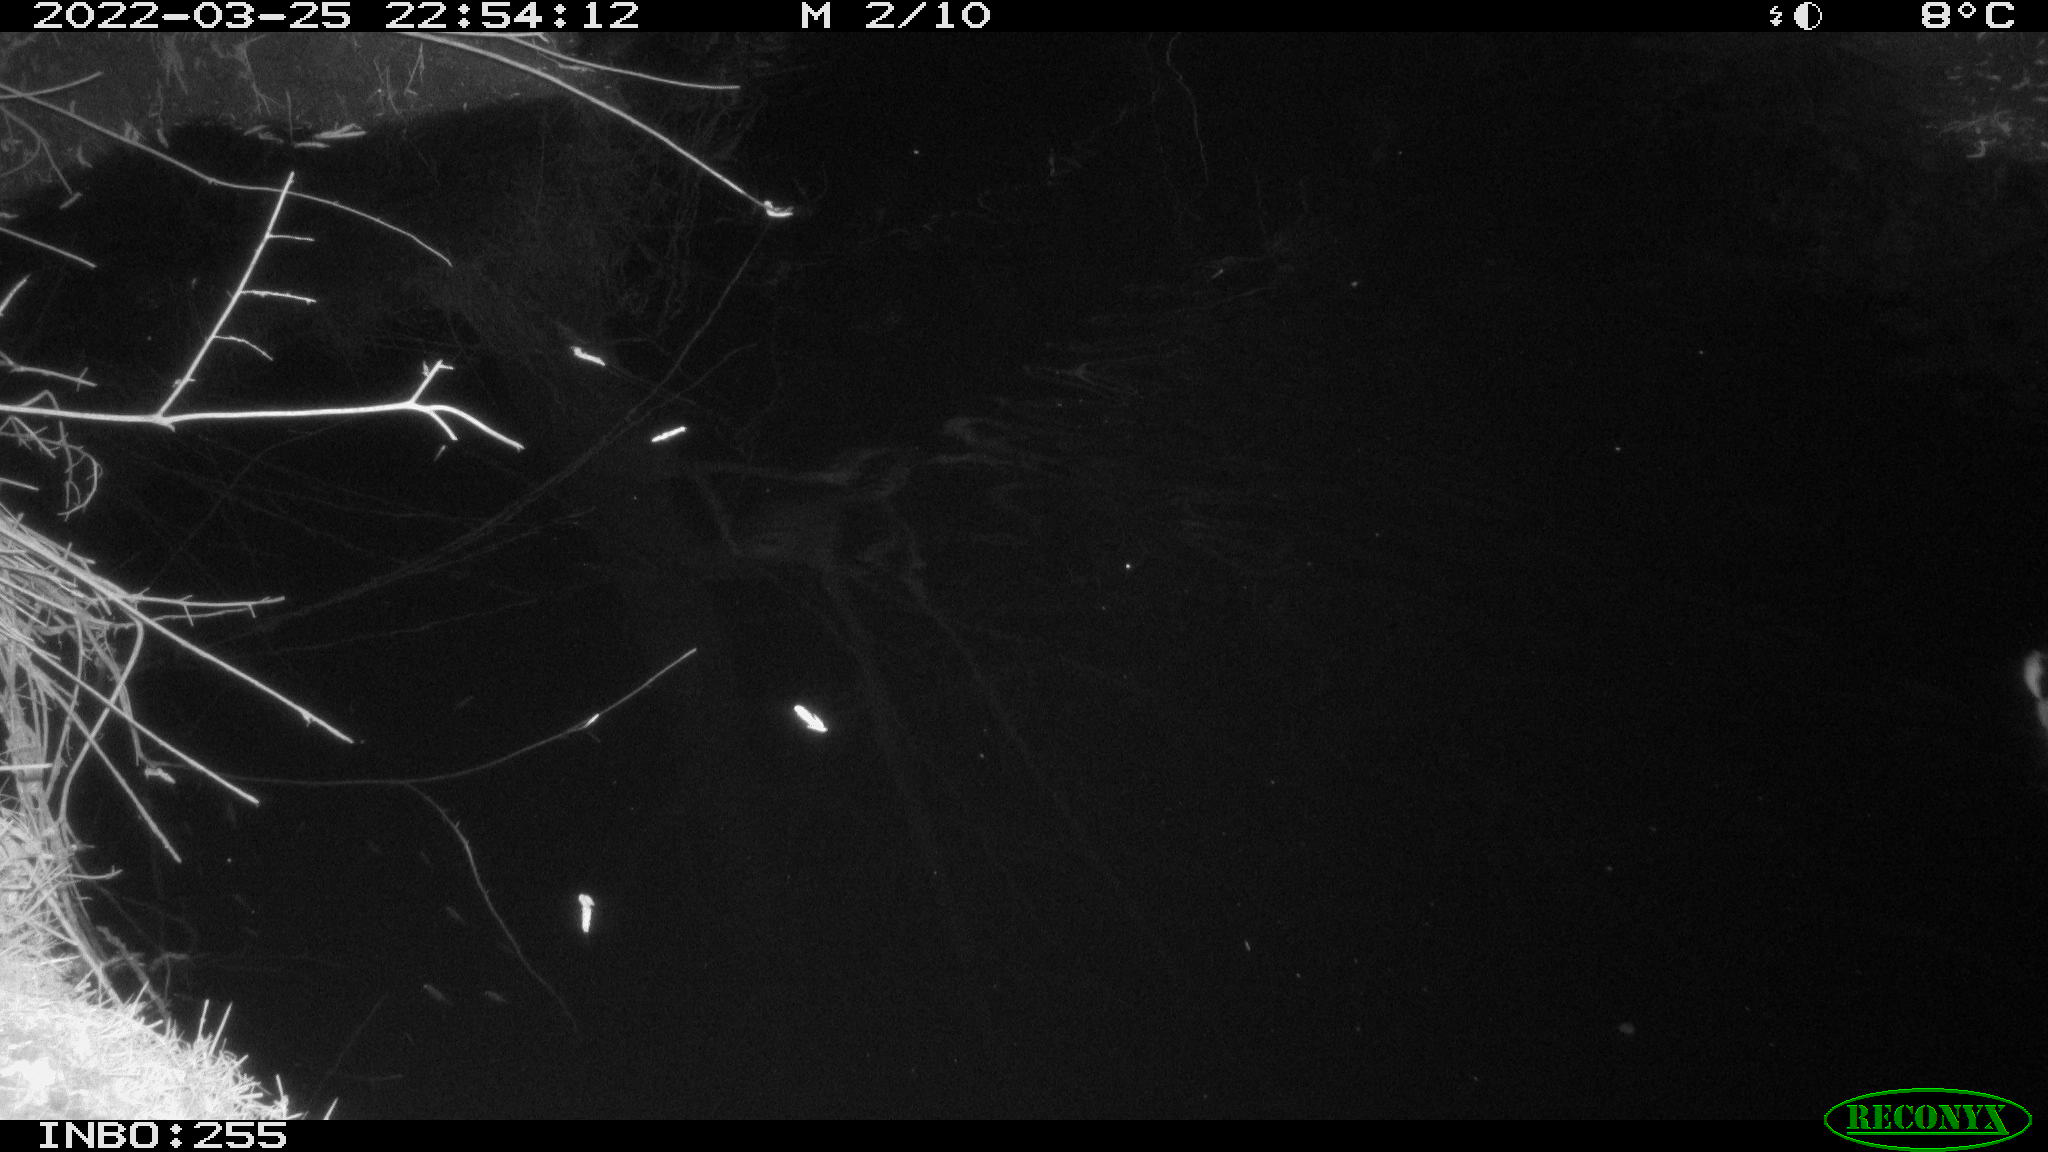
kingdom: Animalia
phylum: Chordata
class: Aves
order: Anseriformes
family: Anatidae
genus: Anas
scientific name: Anas platyrhynchos
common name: Mallard
